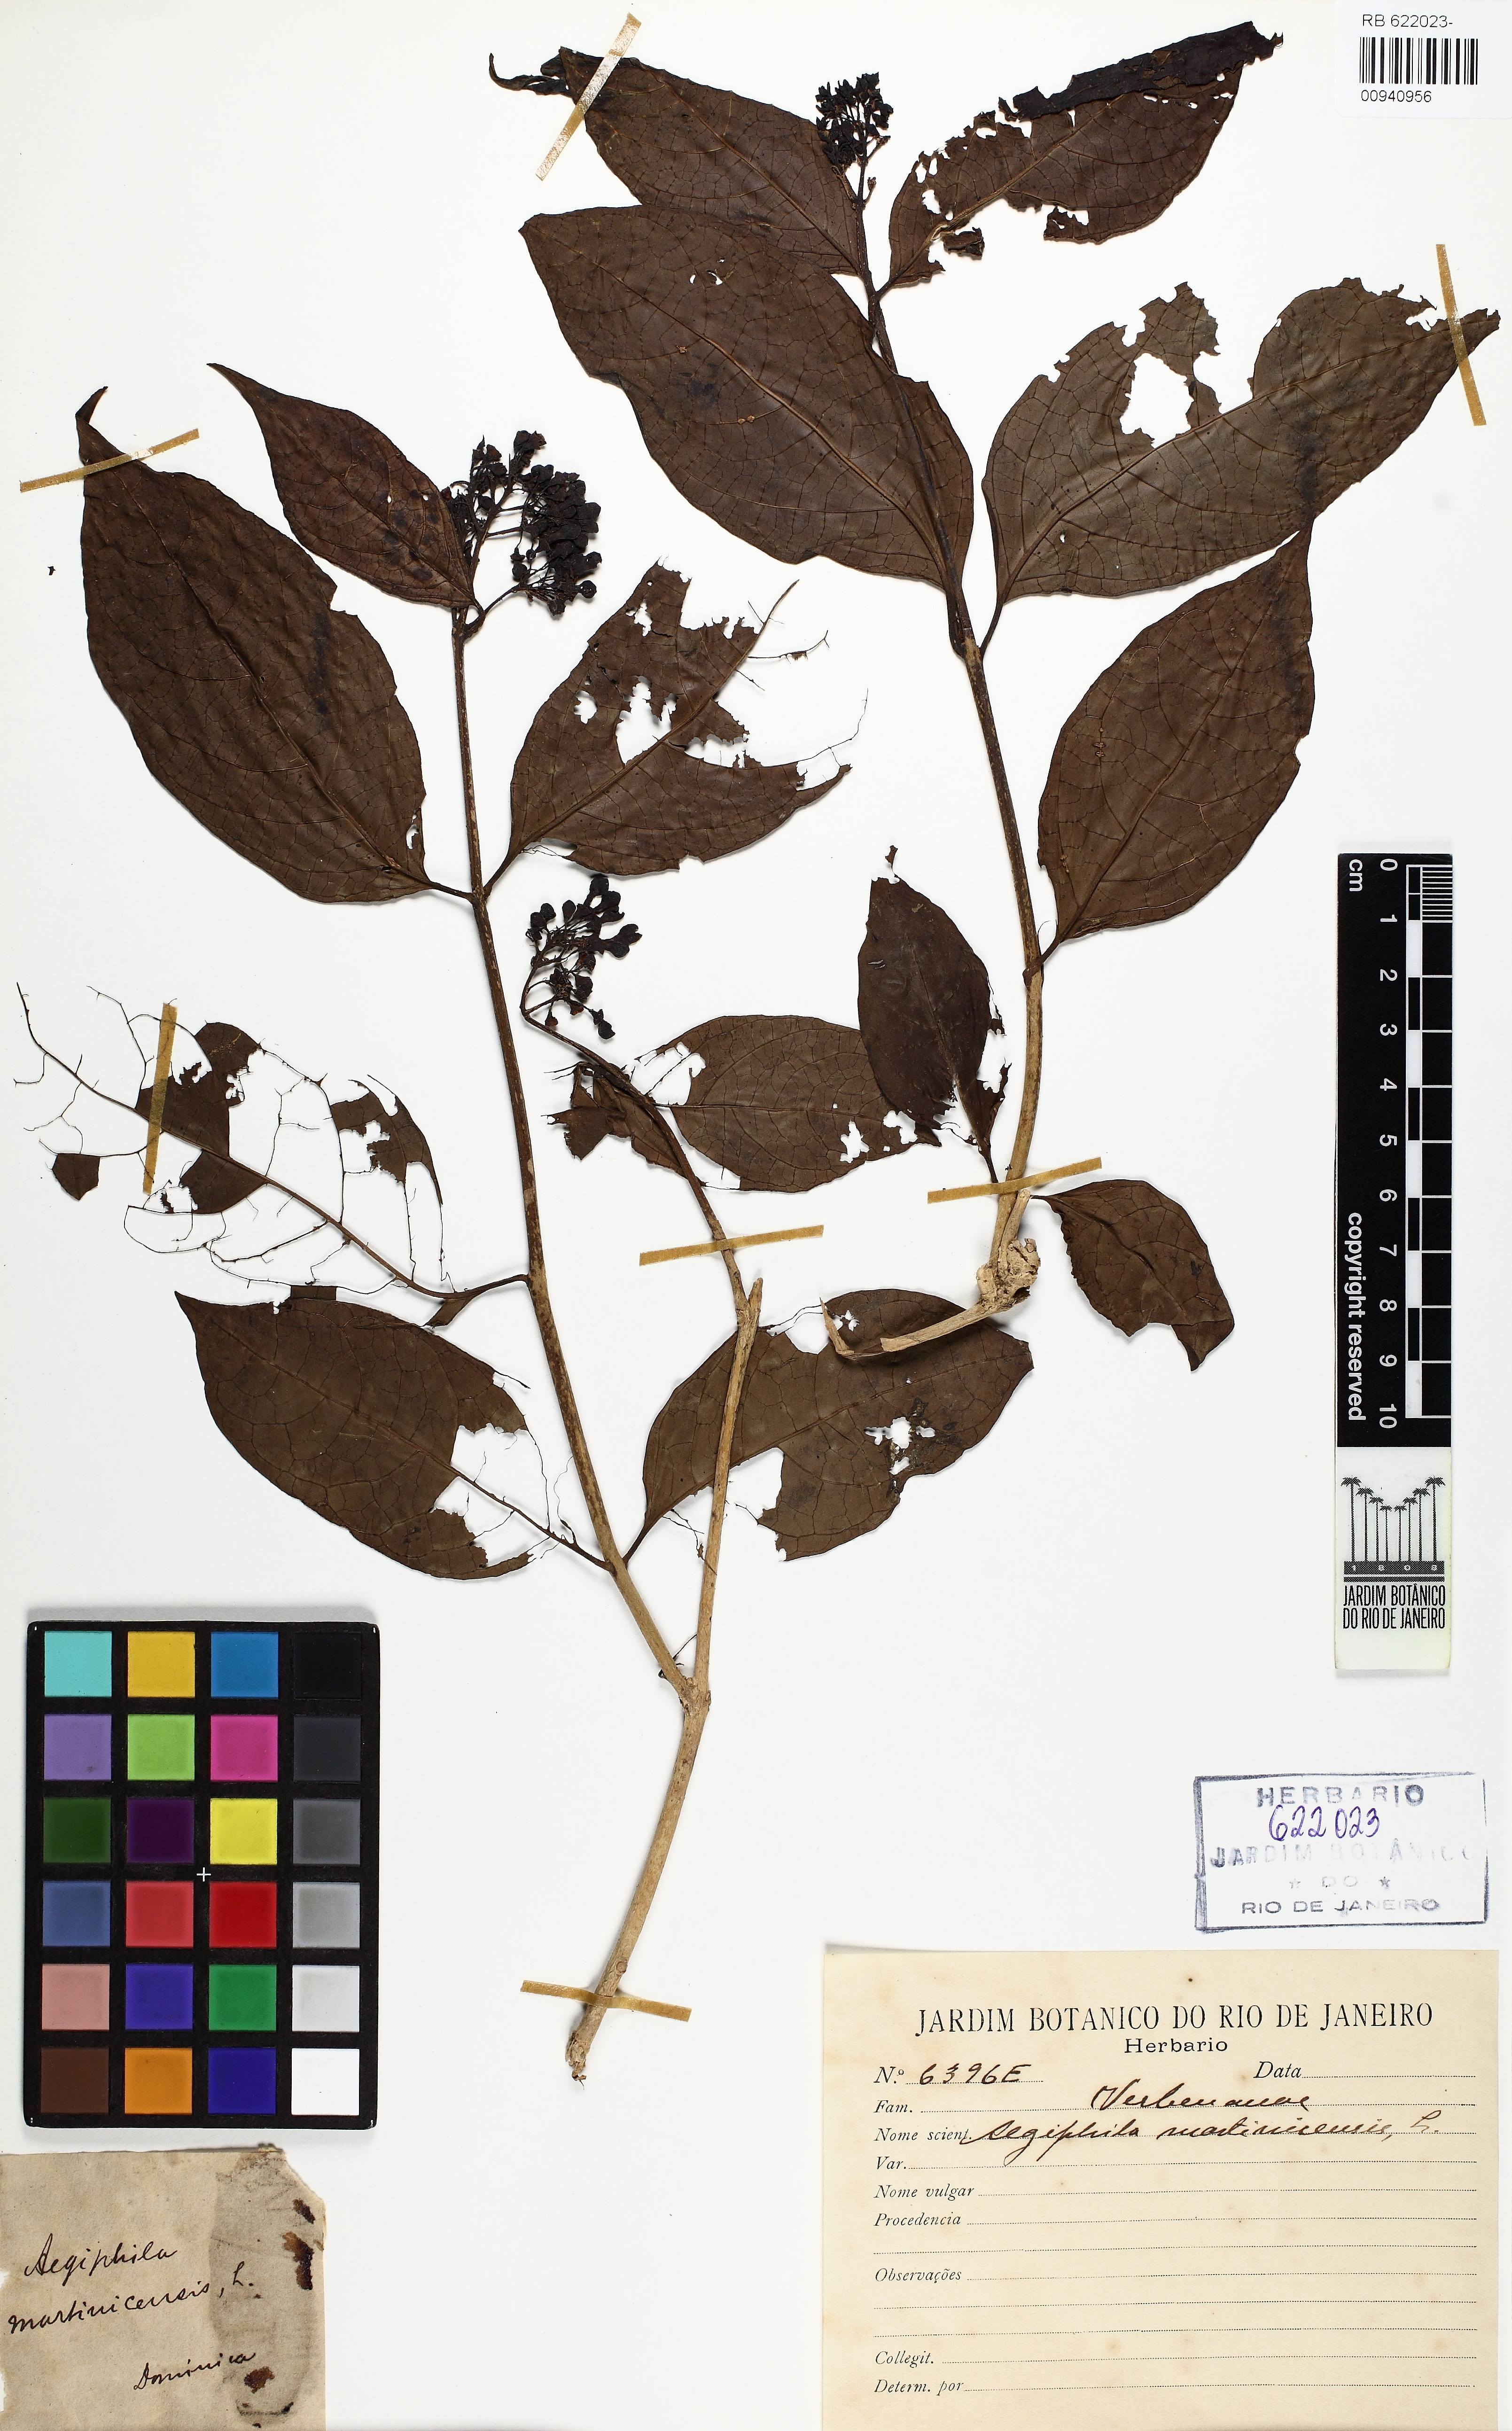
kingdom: Plantae
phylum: Tracheophyta
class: Magnoliopsida
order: Lamiales
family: Lamiaceae
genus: Aegiphila
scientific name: Aegiphila martinicensis
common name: Bastard whiteroot
